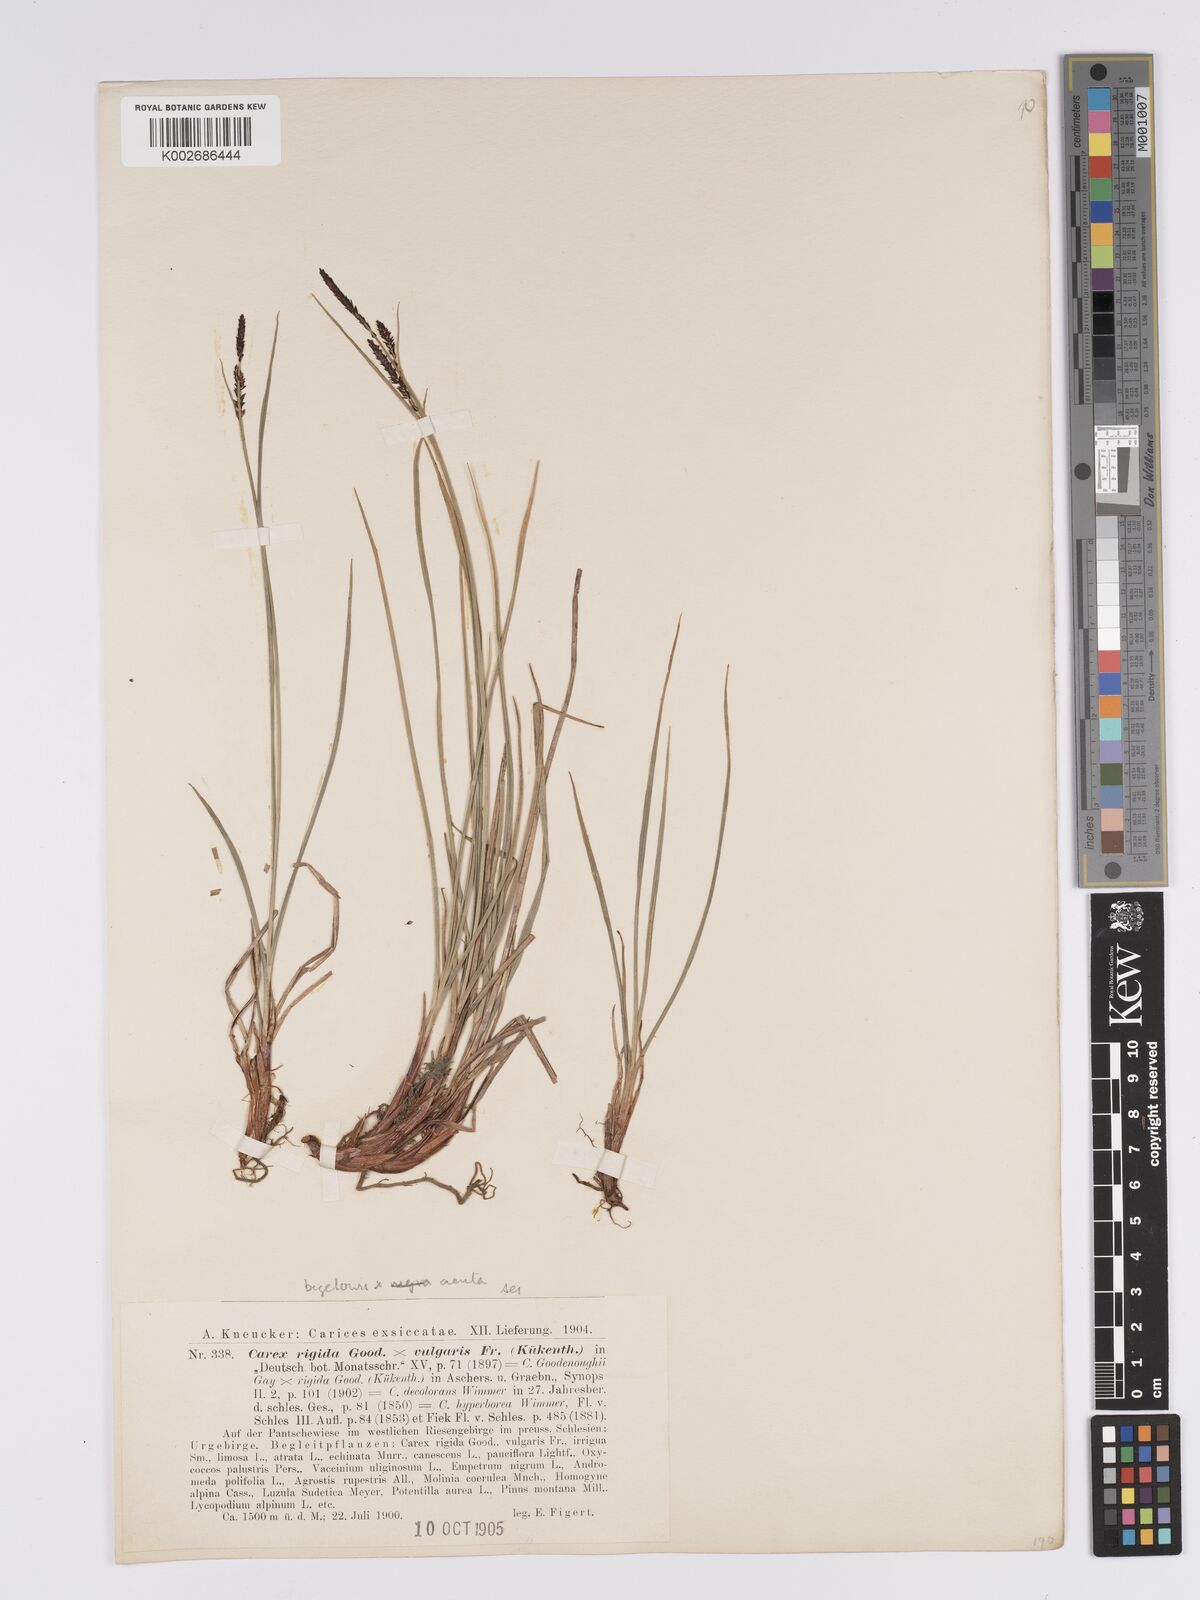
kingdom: Plantae
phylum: Tracheophyta
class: Liliopsida
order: Poales
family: Cyperaceae
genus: Carex
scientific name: Carex bigelowii
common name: Stiff sedge
